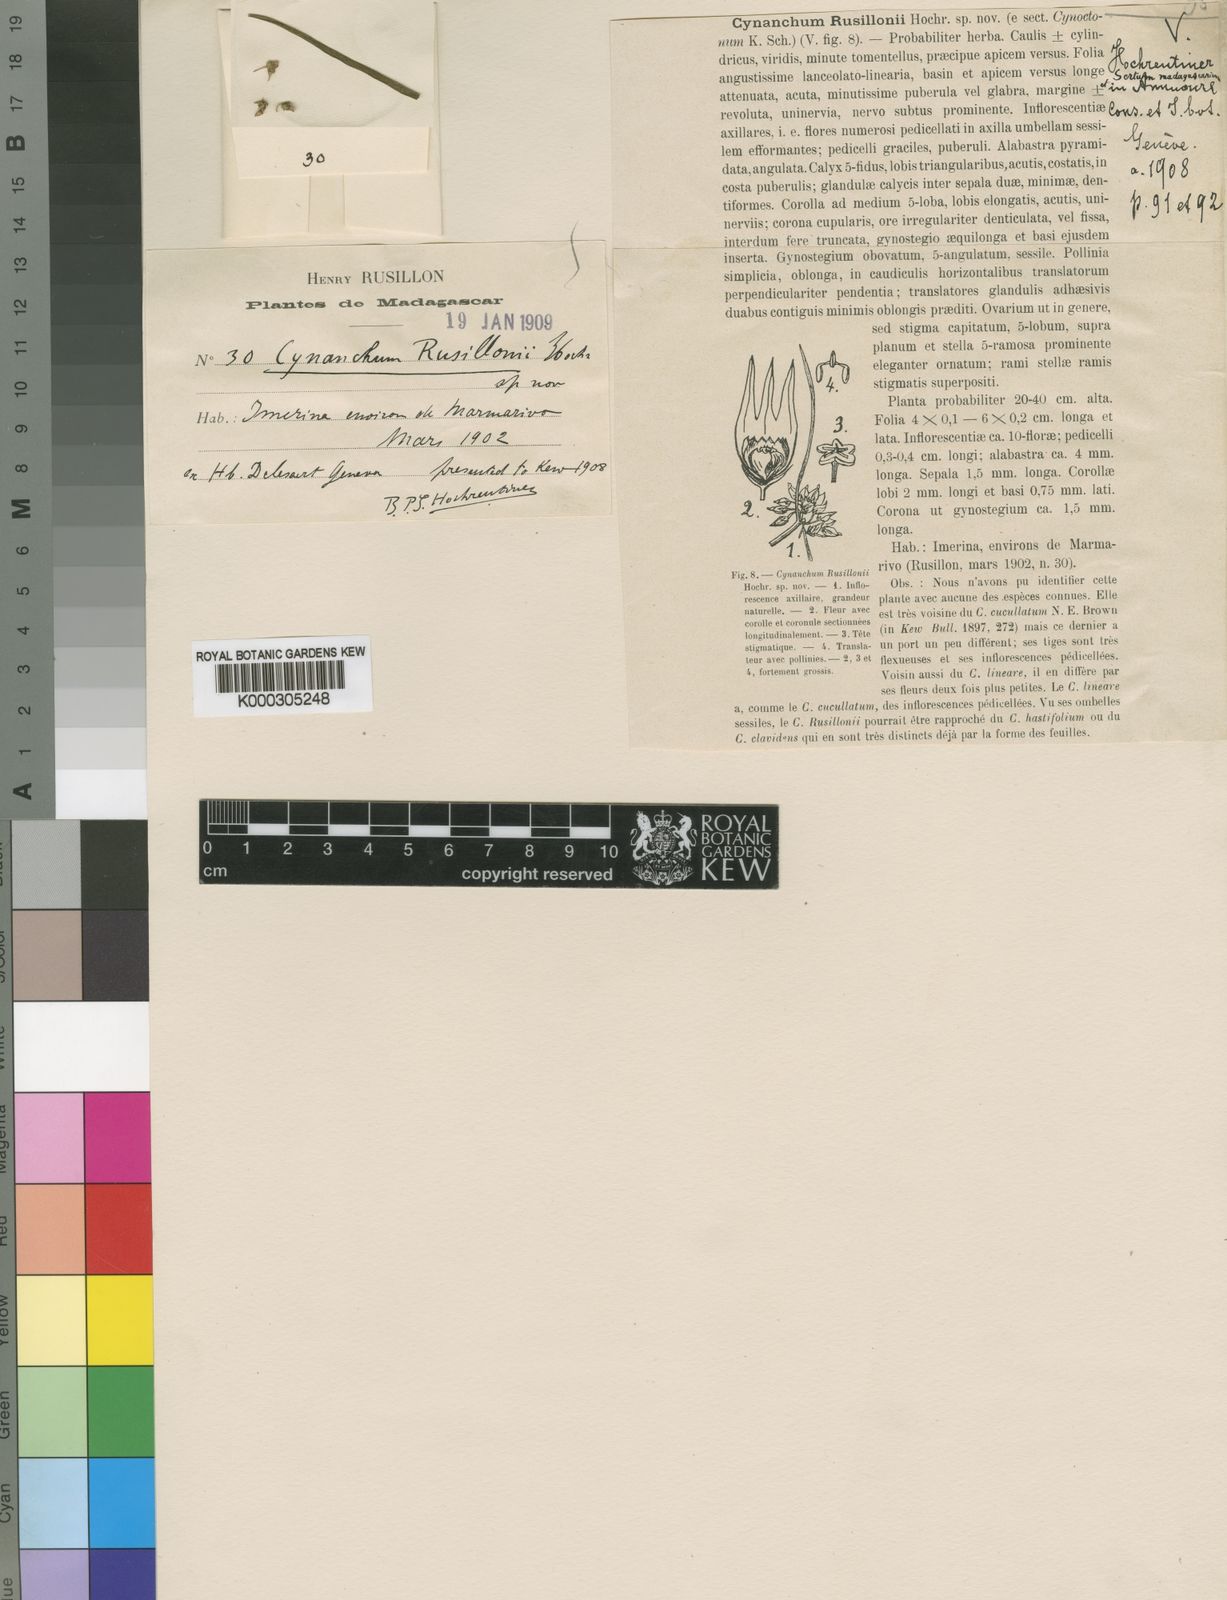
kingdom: Plantae
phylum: Tracheophyta
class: Magnoliopsida
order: Gentianales
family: Apocynaceae
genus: Cynanchum
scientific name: Cynanchum junciforme
